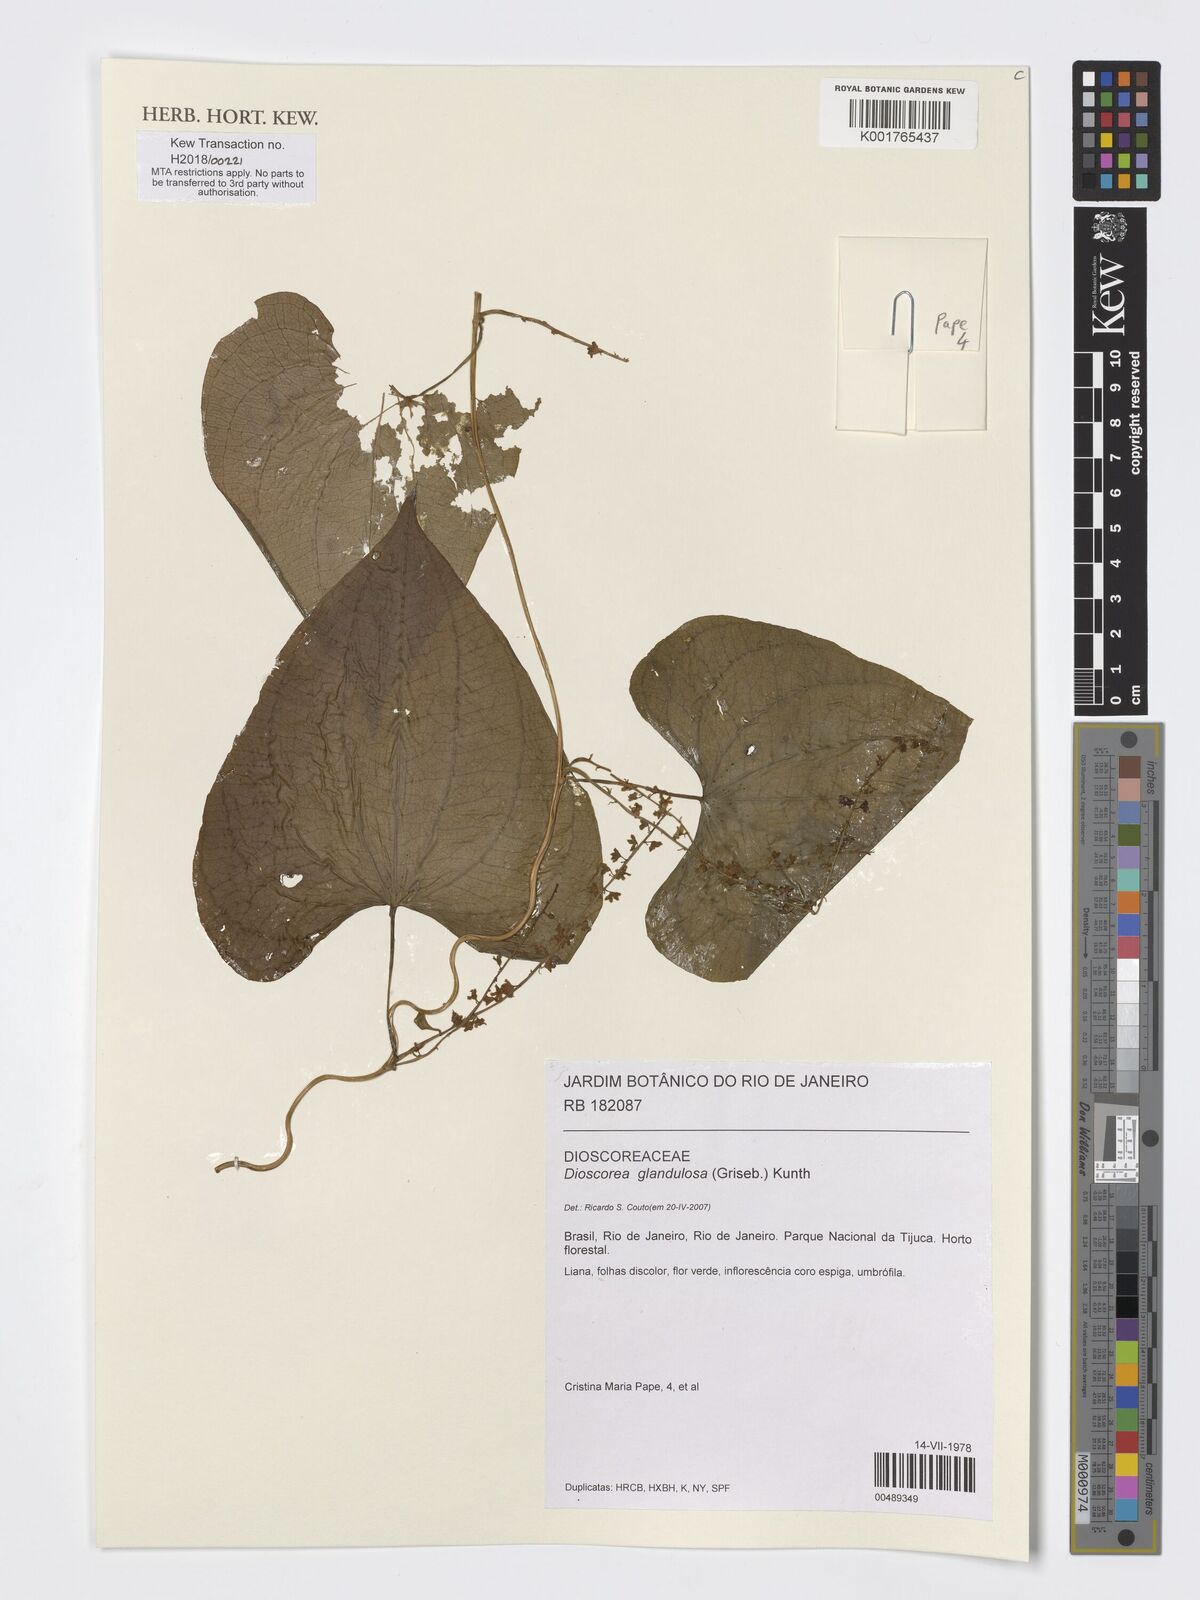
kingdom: Plantae
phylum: Tracheophyta
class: Liliopsida
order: Dioscoreales
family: Dioscoreaceae
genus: Dioscorea
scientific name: Dioscorea glandulosa
